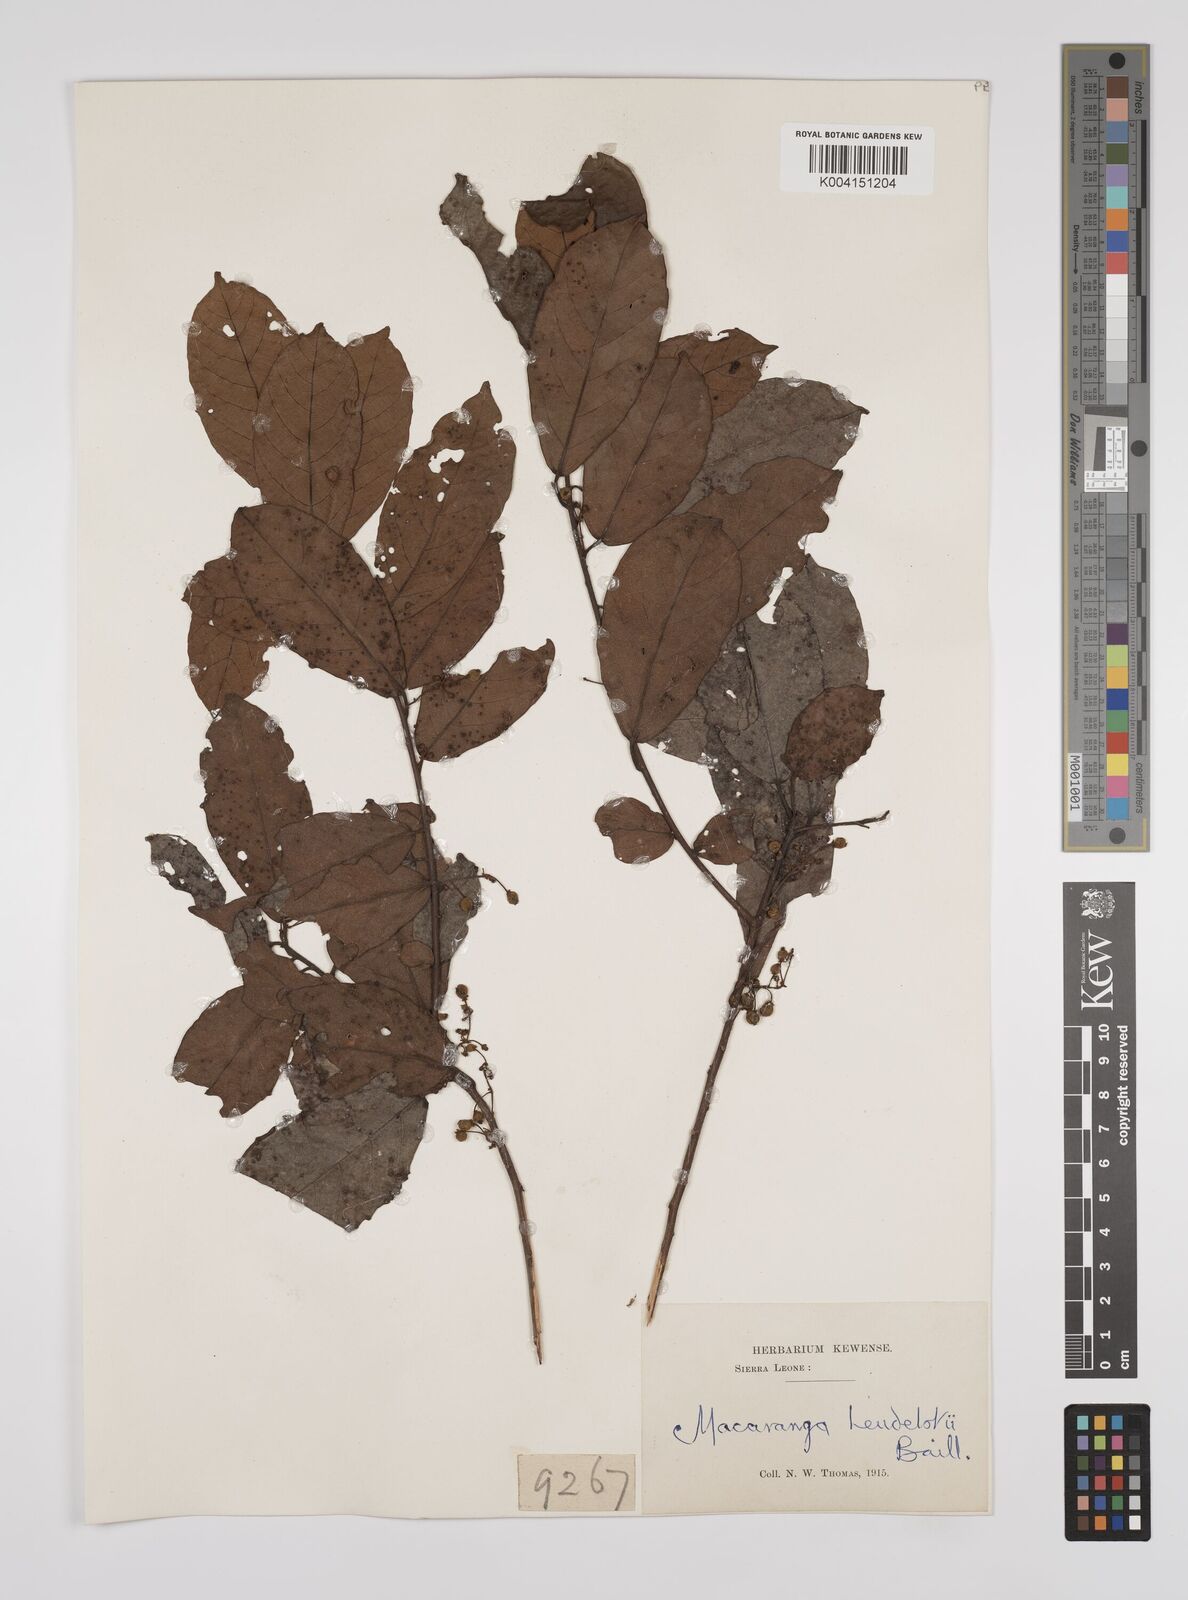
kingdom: Plantae
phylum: Tracheophyta
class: Magnoliopsida
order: Malpighiales
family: Euphorbiaceae
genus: Macaranga
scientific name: Macaranga heudelotii
